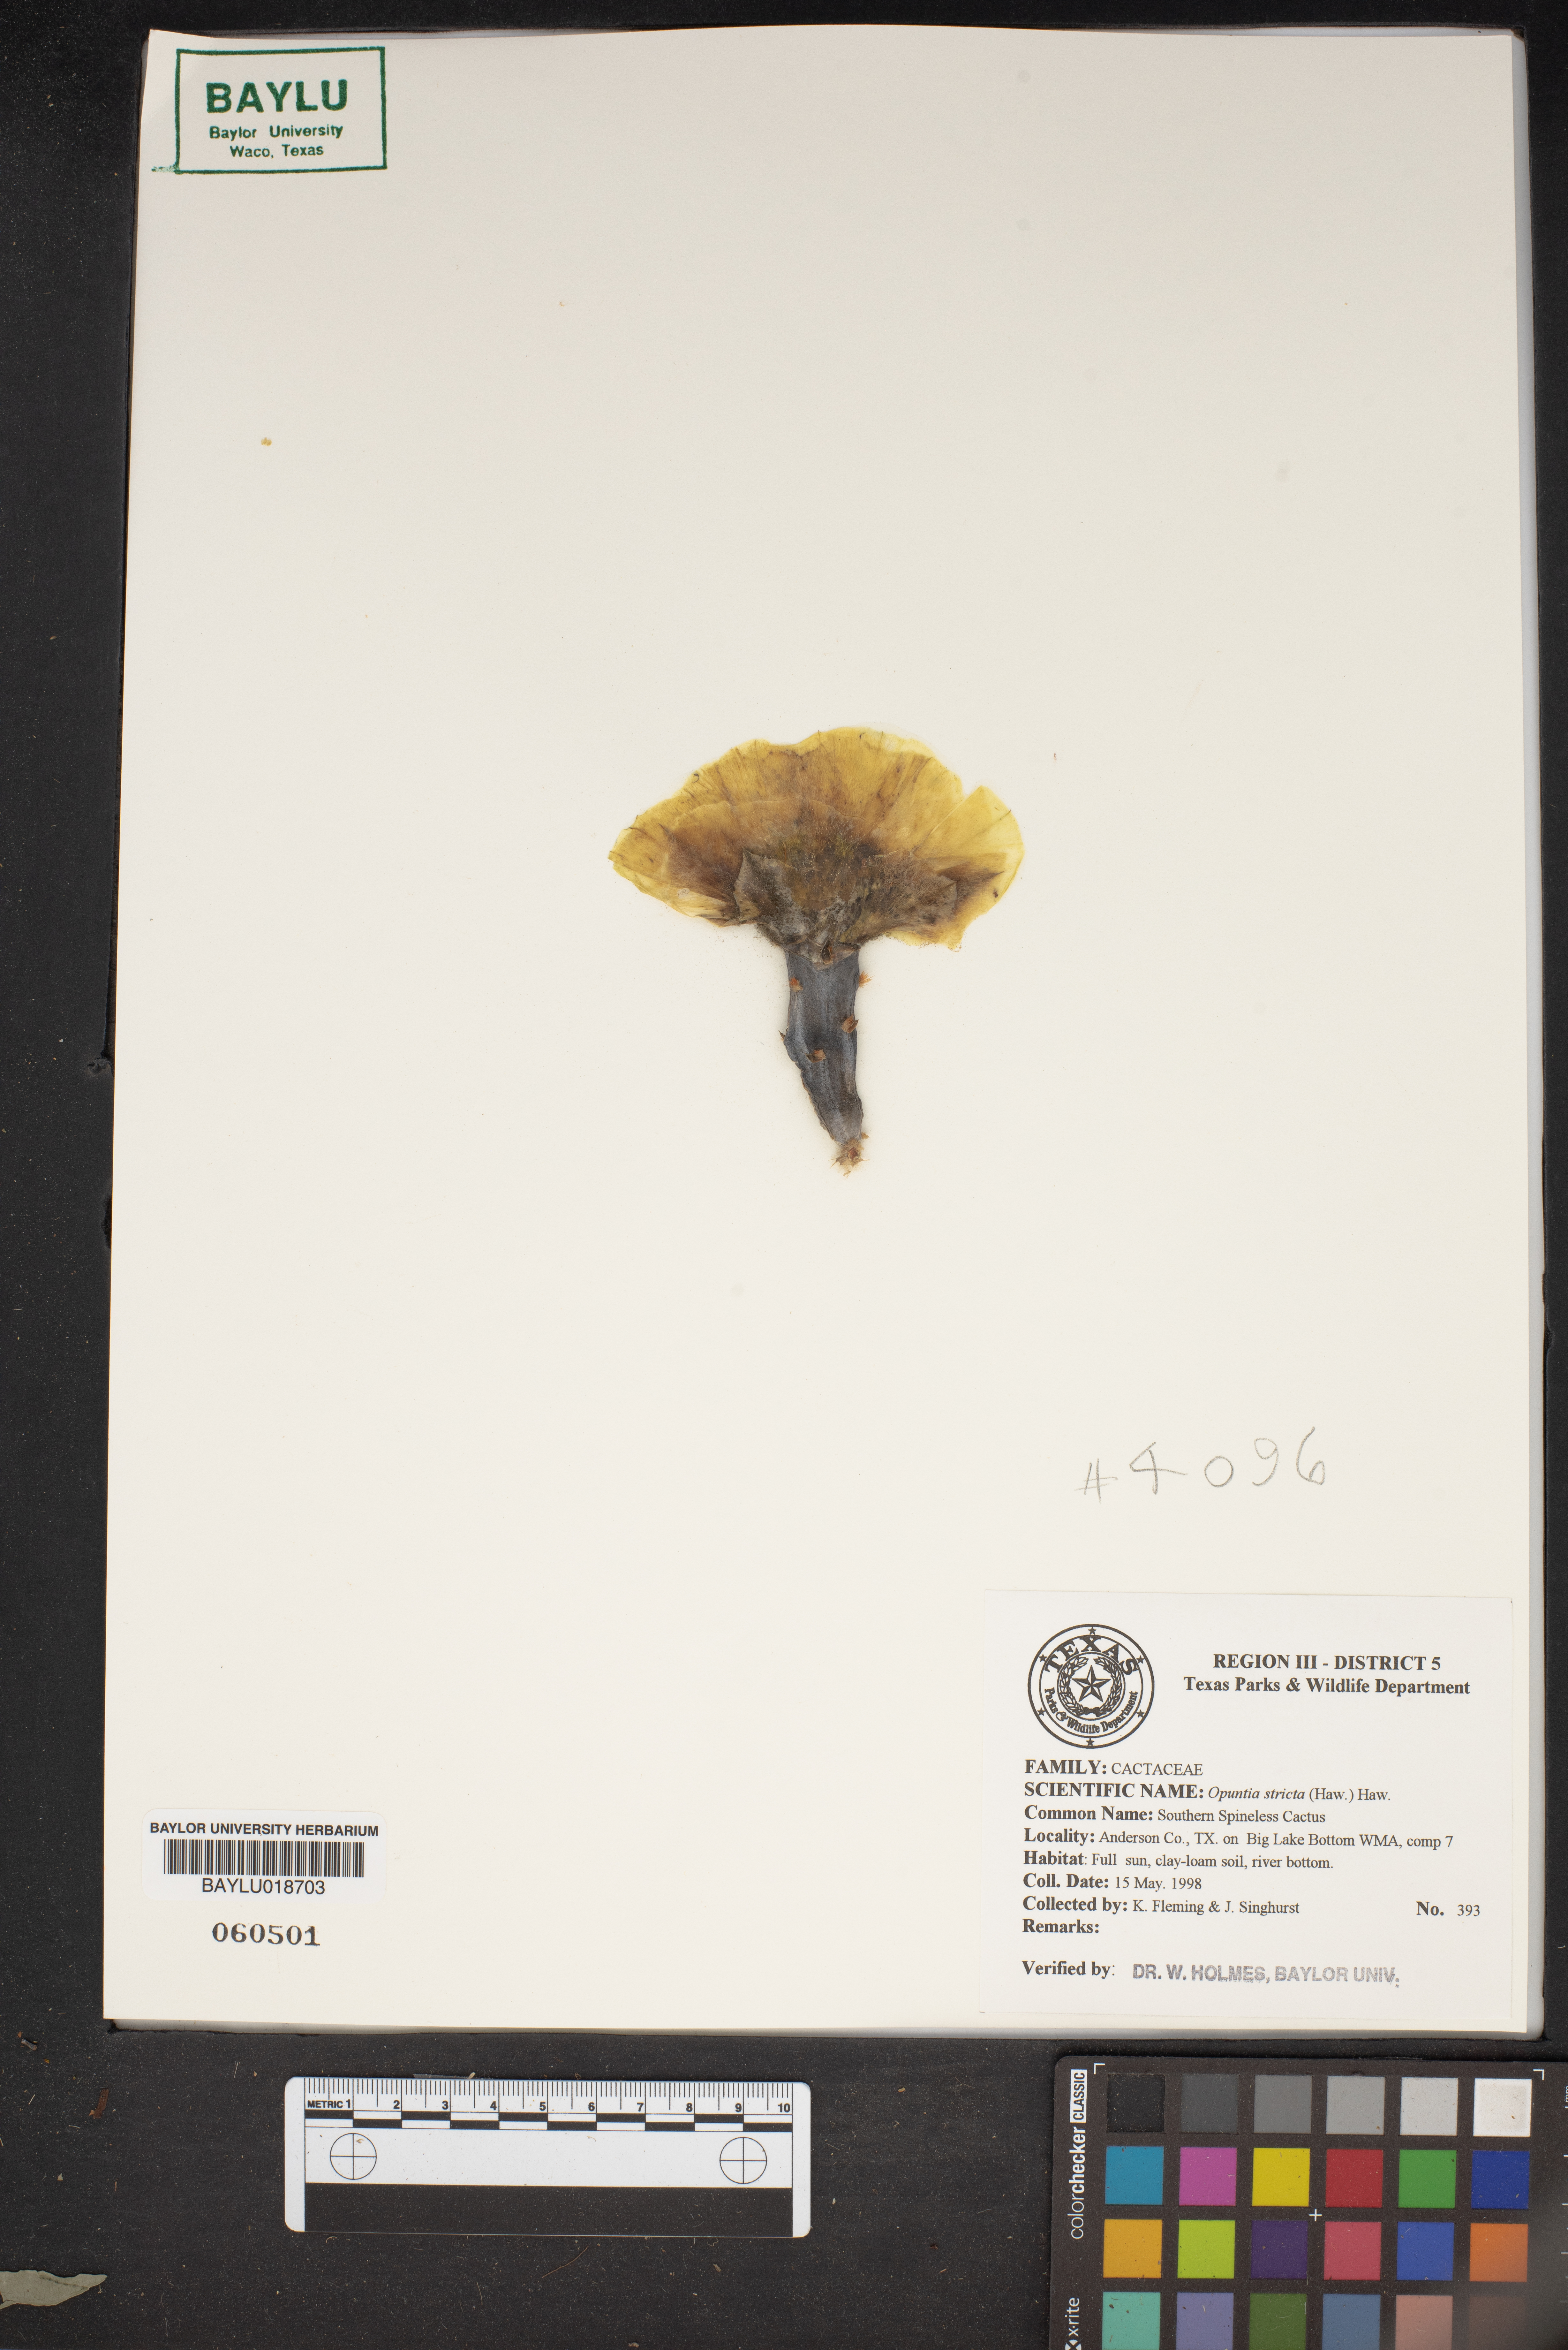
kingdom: Plantae
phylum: Tracheophyta
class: Magnoliopsida
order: Caryophyllales
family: Cactaceae
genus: Opuntia
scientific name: Opuntia stricta
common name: Erect pricklypear
